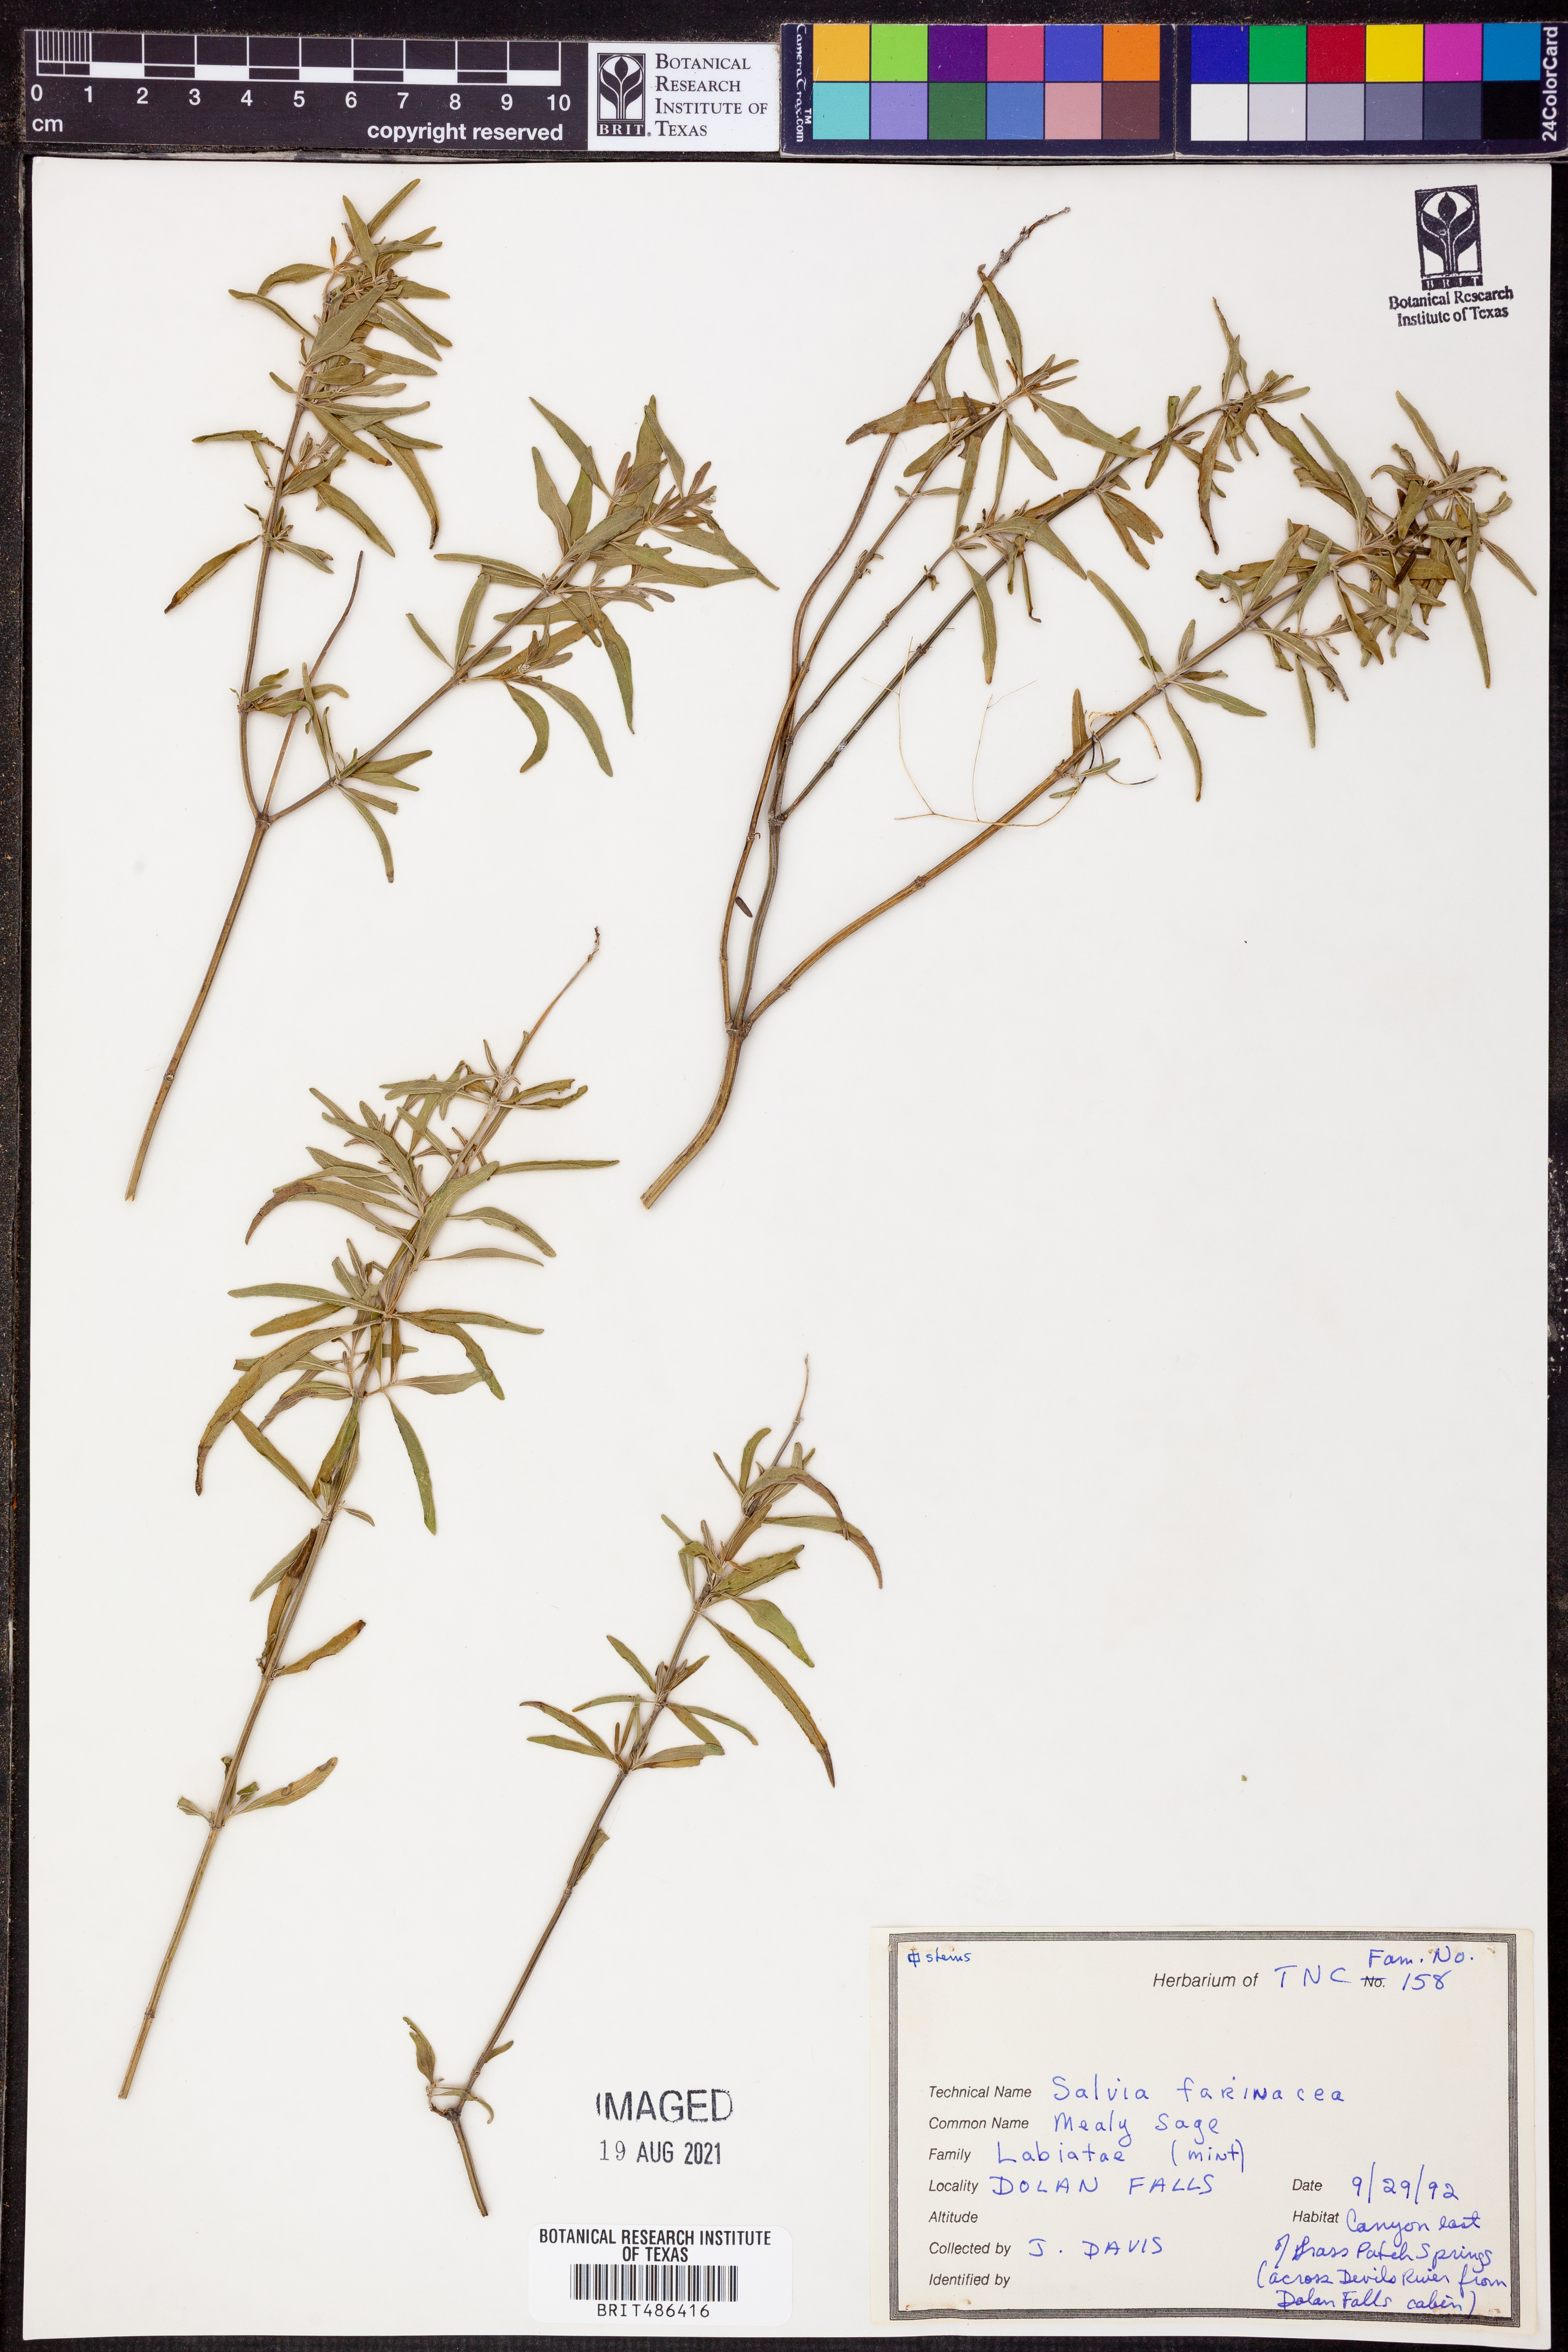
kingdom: Plantae
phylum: Tracheophyta
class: Magnoliopsida
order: Lamiales
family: Lamiaceae
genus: Salvia
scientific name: Salvia farinacea
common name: Mealy sage
